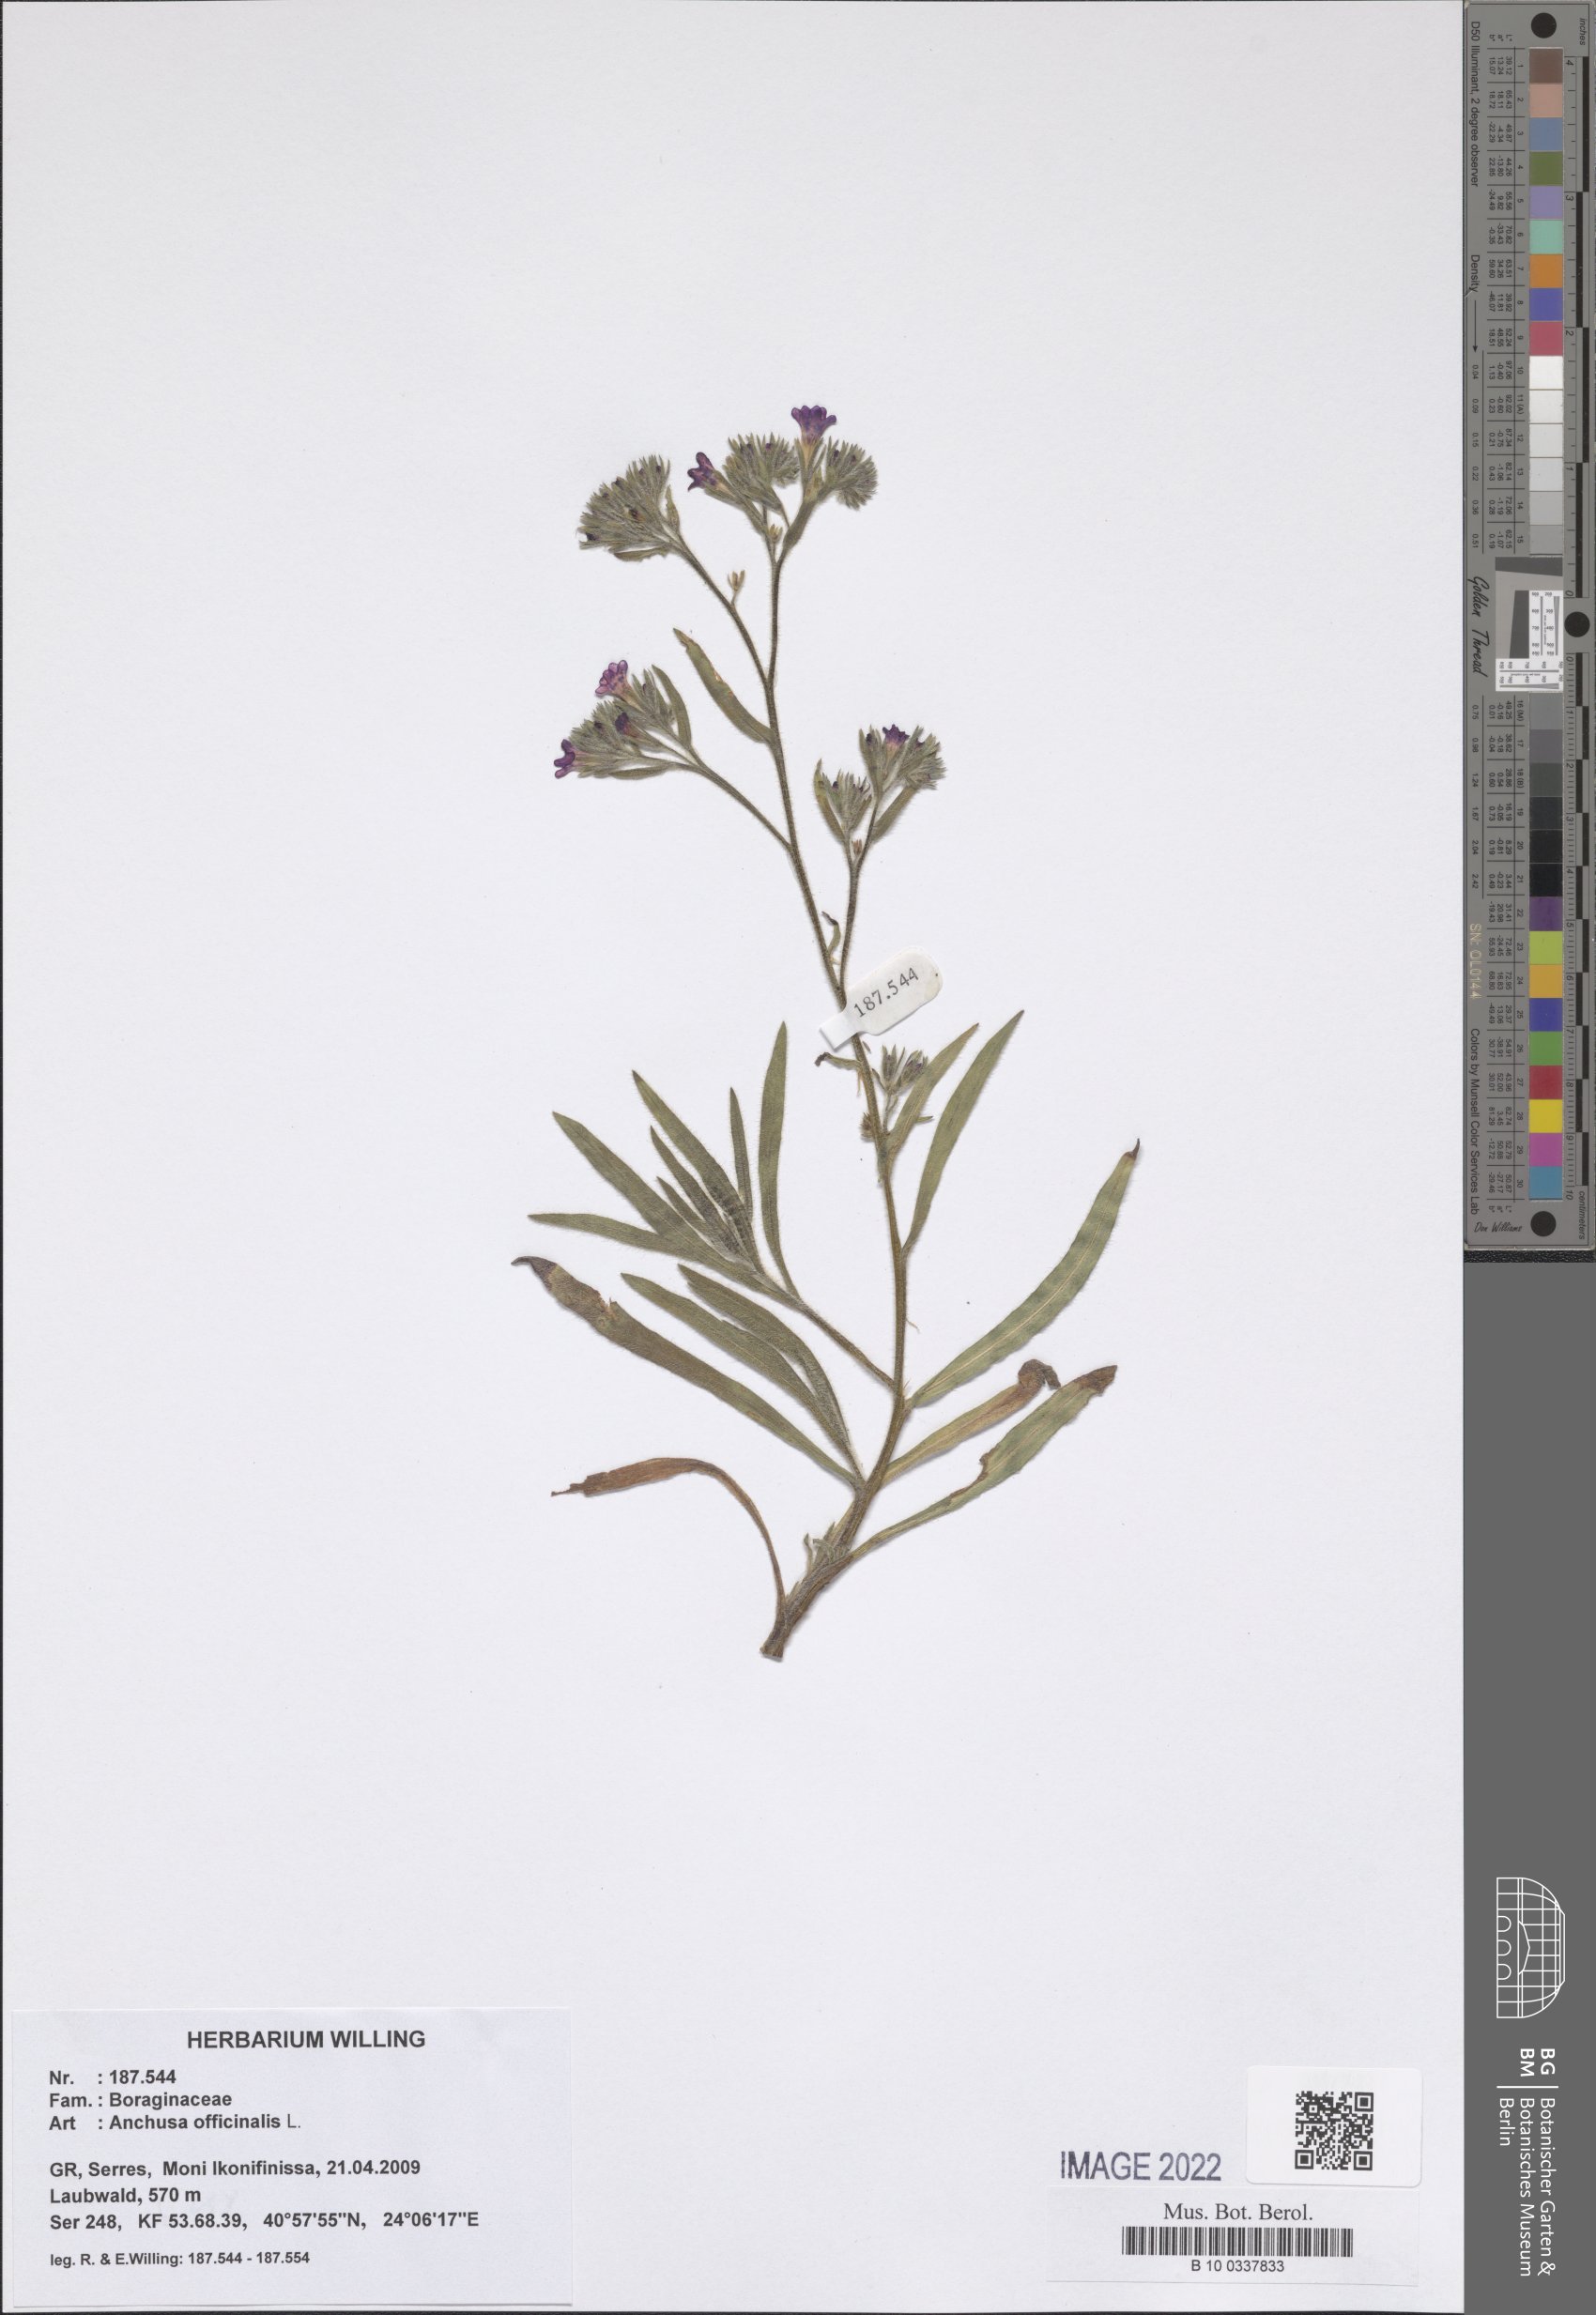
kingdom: Plantae
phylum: Tracheophyta
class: Magnoliopsida
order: Boraginales
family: Boraginaceae
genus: Anchusa
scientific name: Anchusa officinalis
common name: Alkanet
